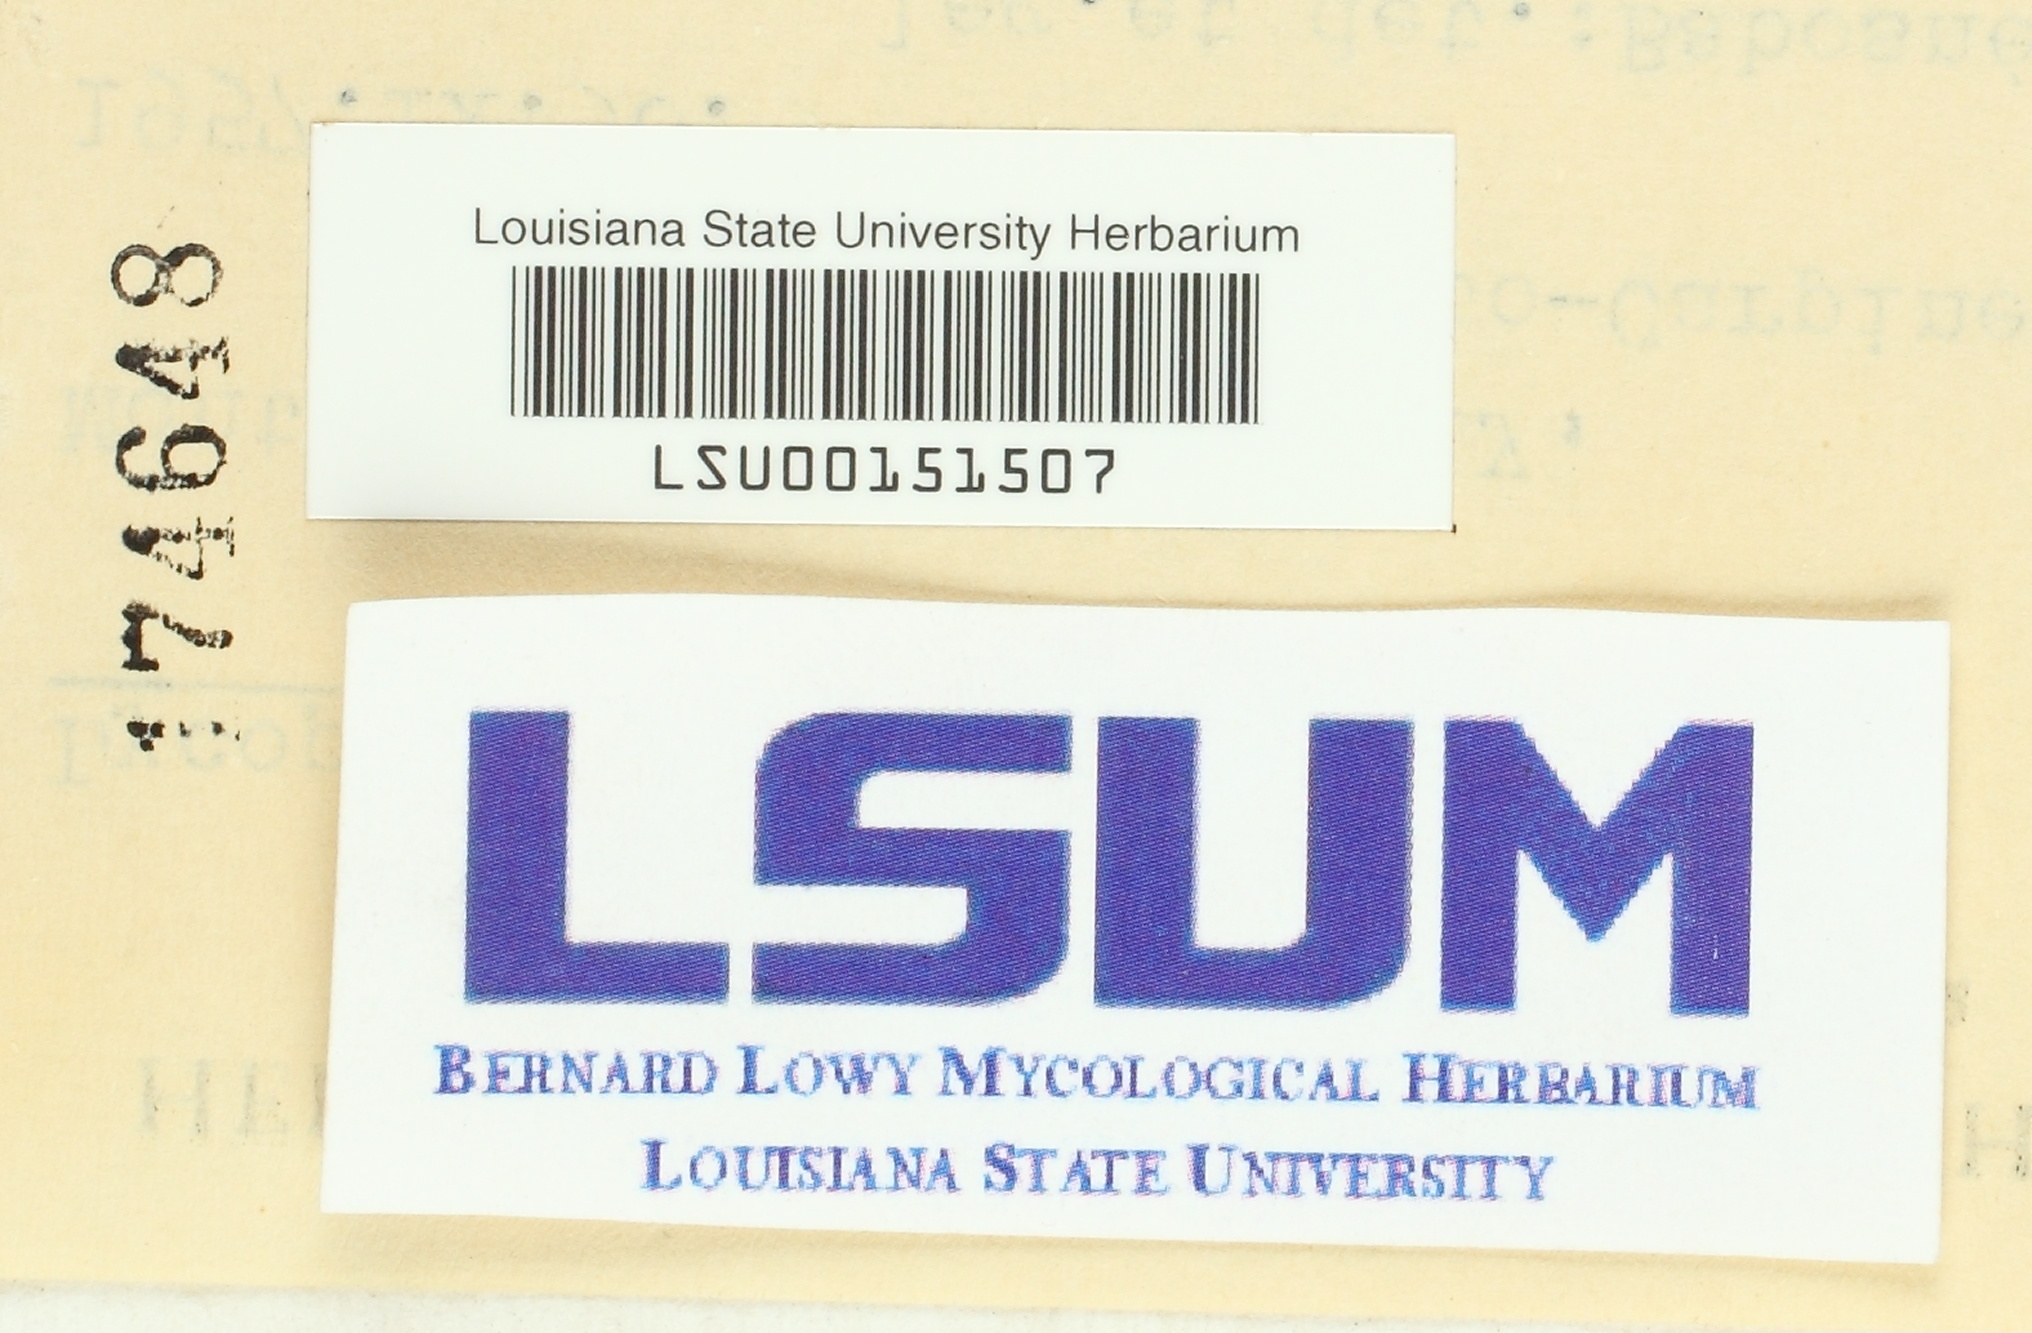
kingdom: Fungi
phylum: Basidiomycota
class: Agaricomycetes
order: Agaricales
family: Lycoperdaceae
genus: Apioperdon
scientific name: Apioperdon pyriforme
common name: Pear-shaped puffball
